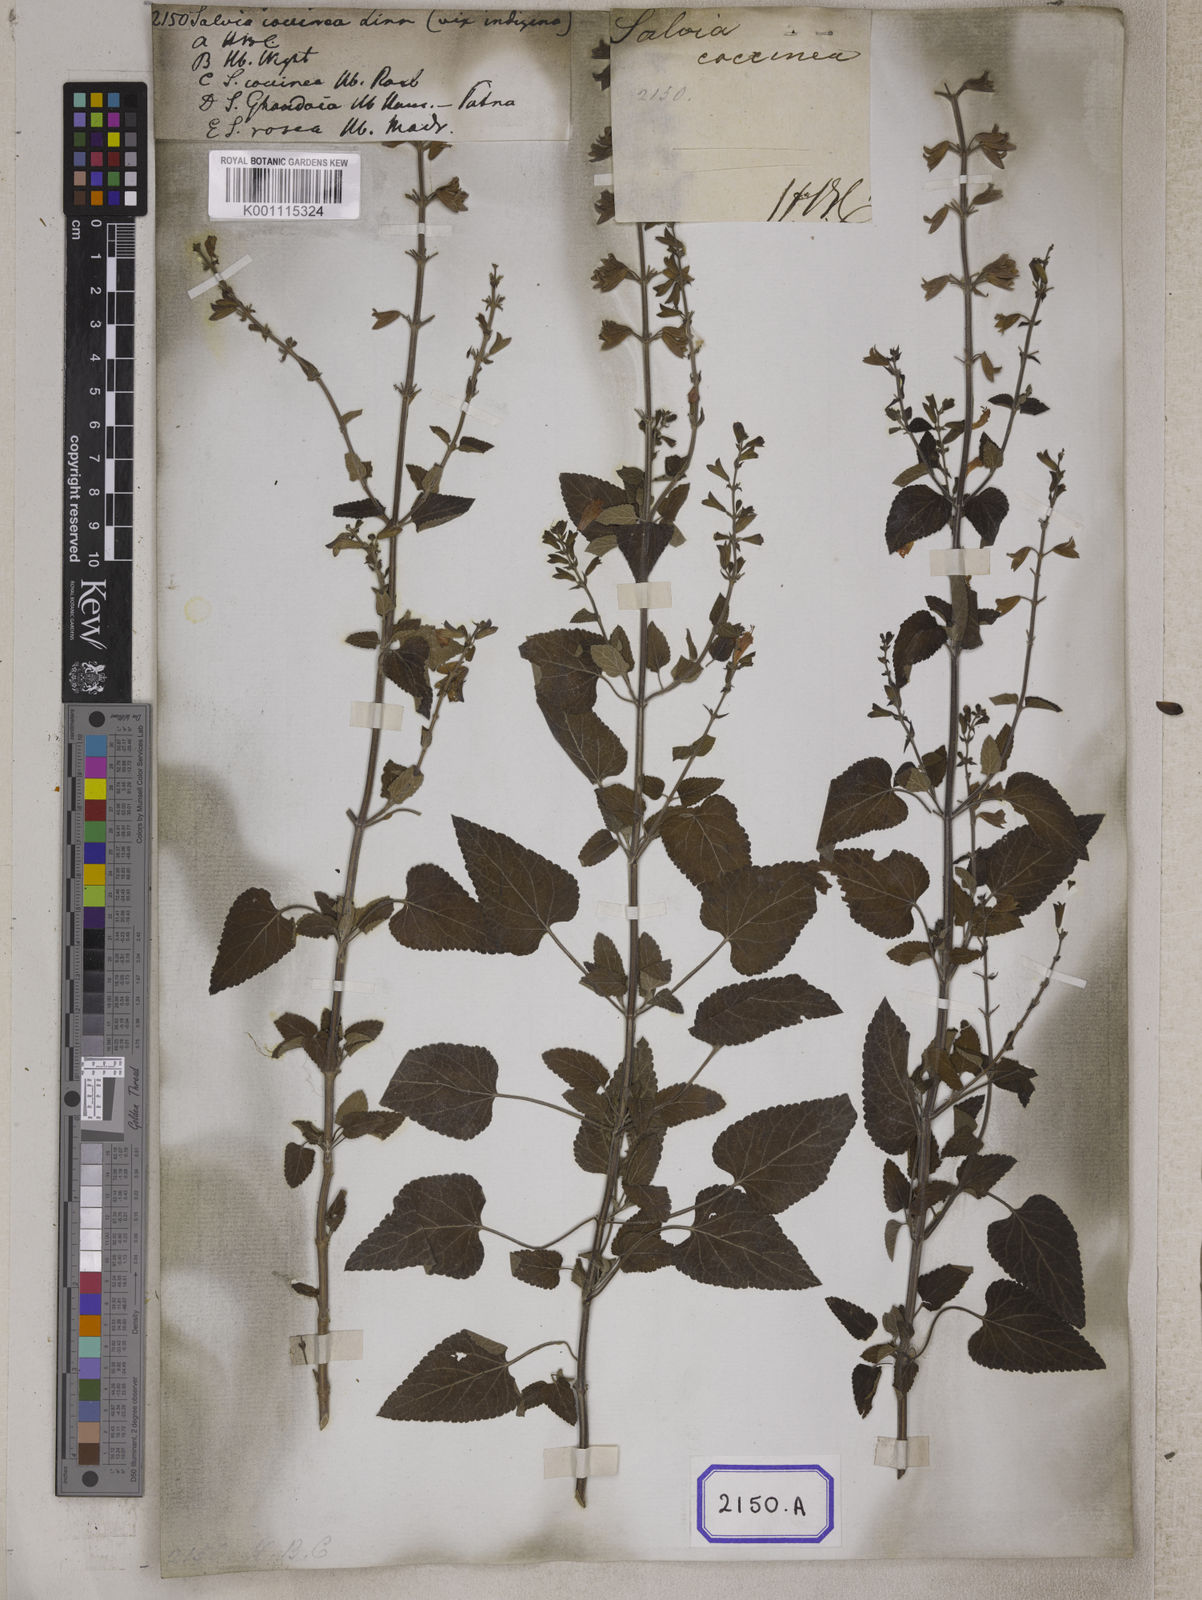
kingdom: Plantae
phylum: Tracheophyta
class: Magnoliopsida
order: Lamiales
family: Lamiaceae
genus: Salvia
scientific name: Salvia coccinea
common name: Blood sage
